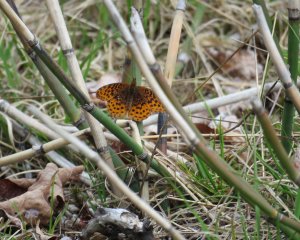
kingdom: Animalia
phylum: Arthropoda
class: Insecta
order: Lepidoptera
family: Nymphalidae
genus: Clossiana
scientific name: Clossiana toddi
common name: Meadow Fritillary
